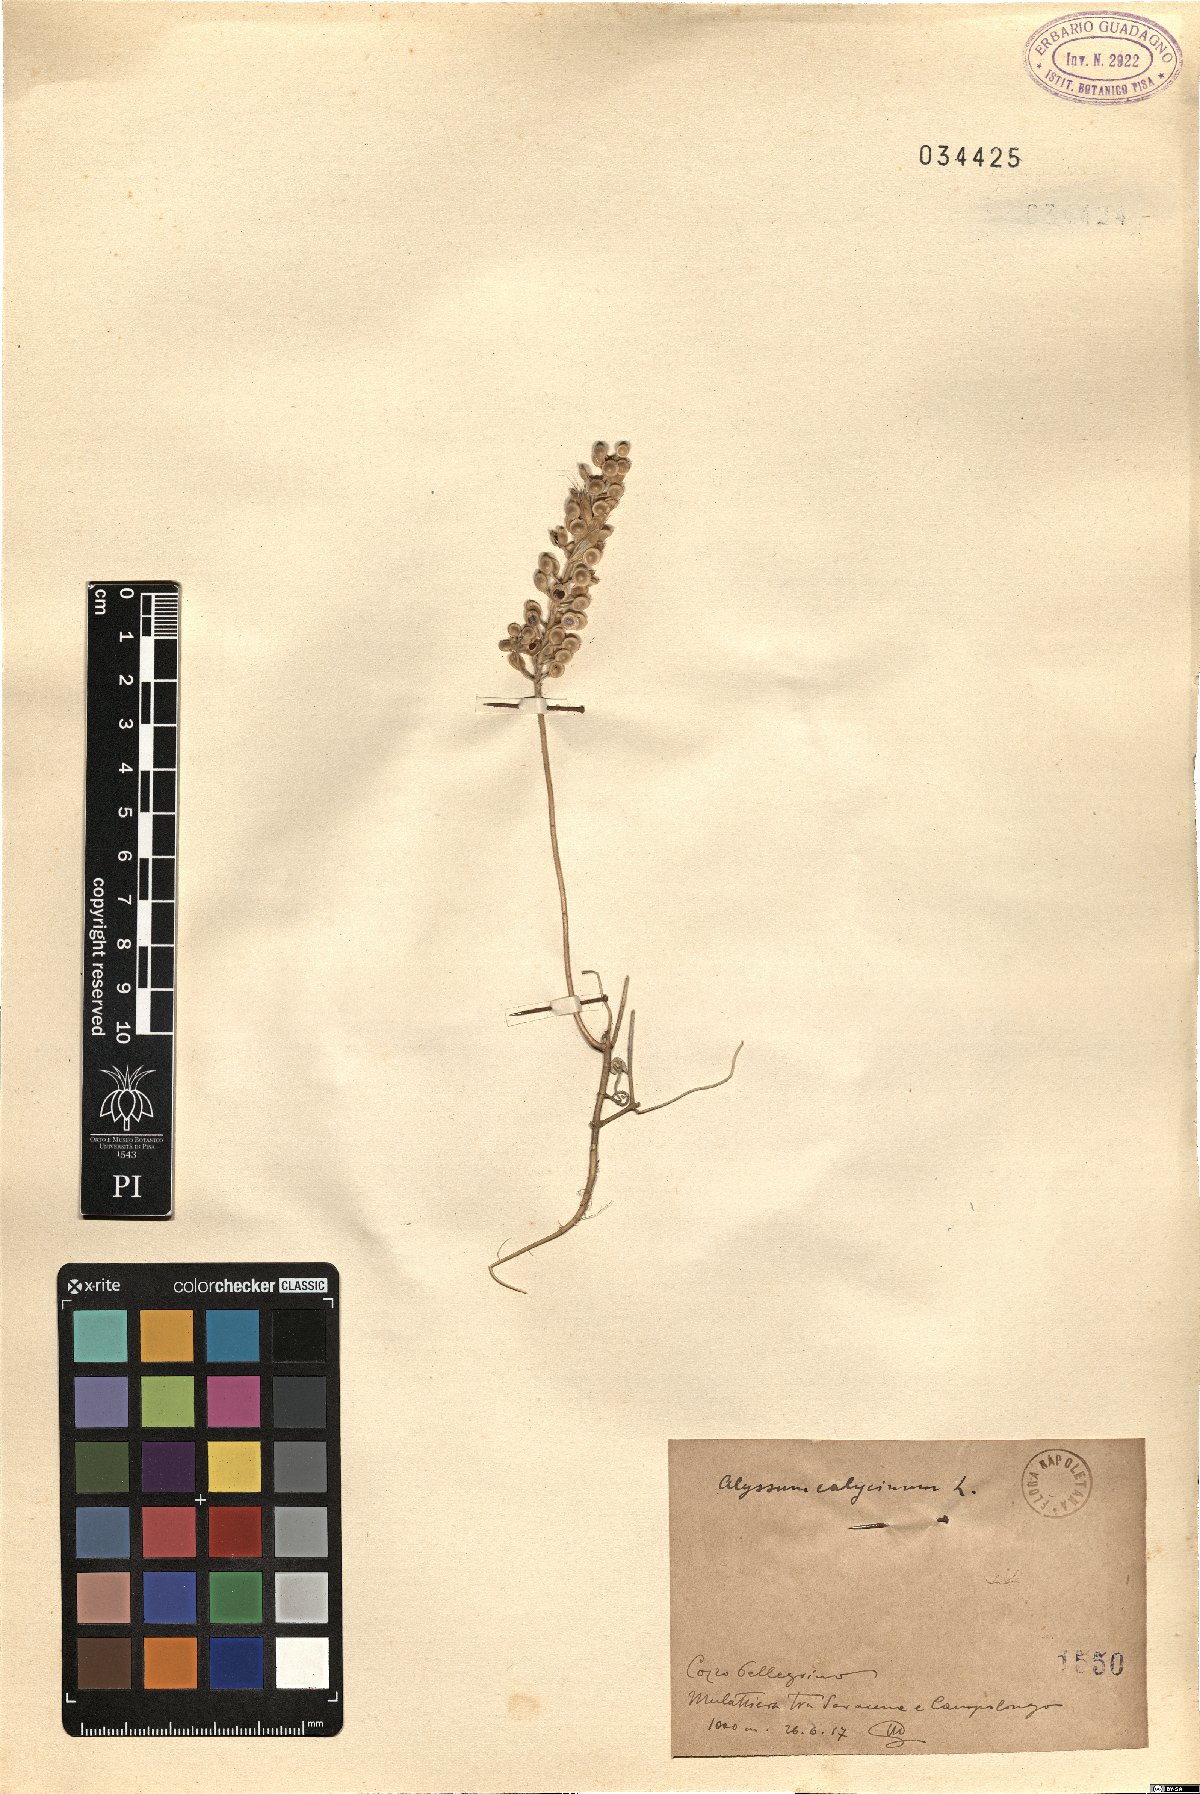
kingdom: Plantae
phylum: Tracheophyta
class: Magnoliopsida
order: Brassicales
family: Brassicaceae
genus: Alyssum
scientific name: Alyssum alyssoides
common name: Small alison
